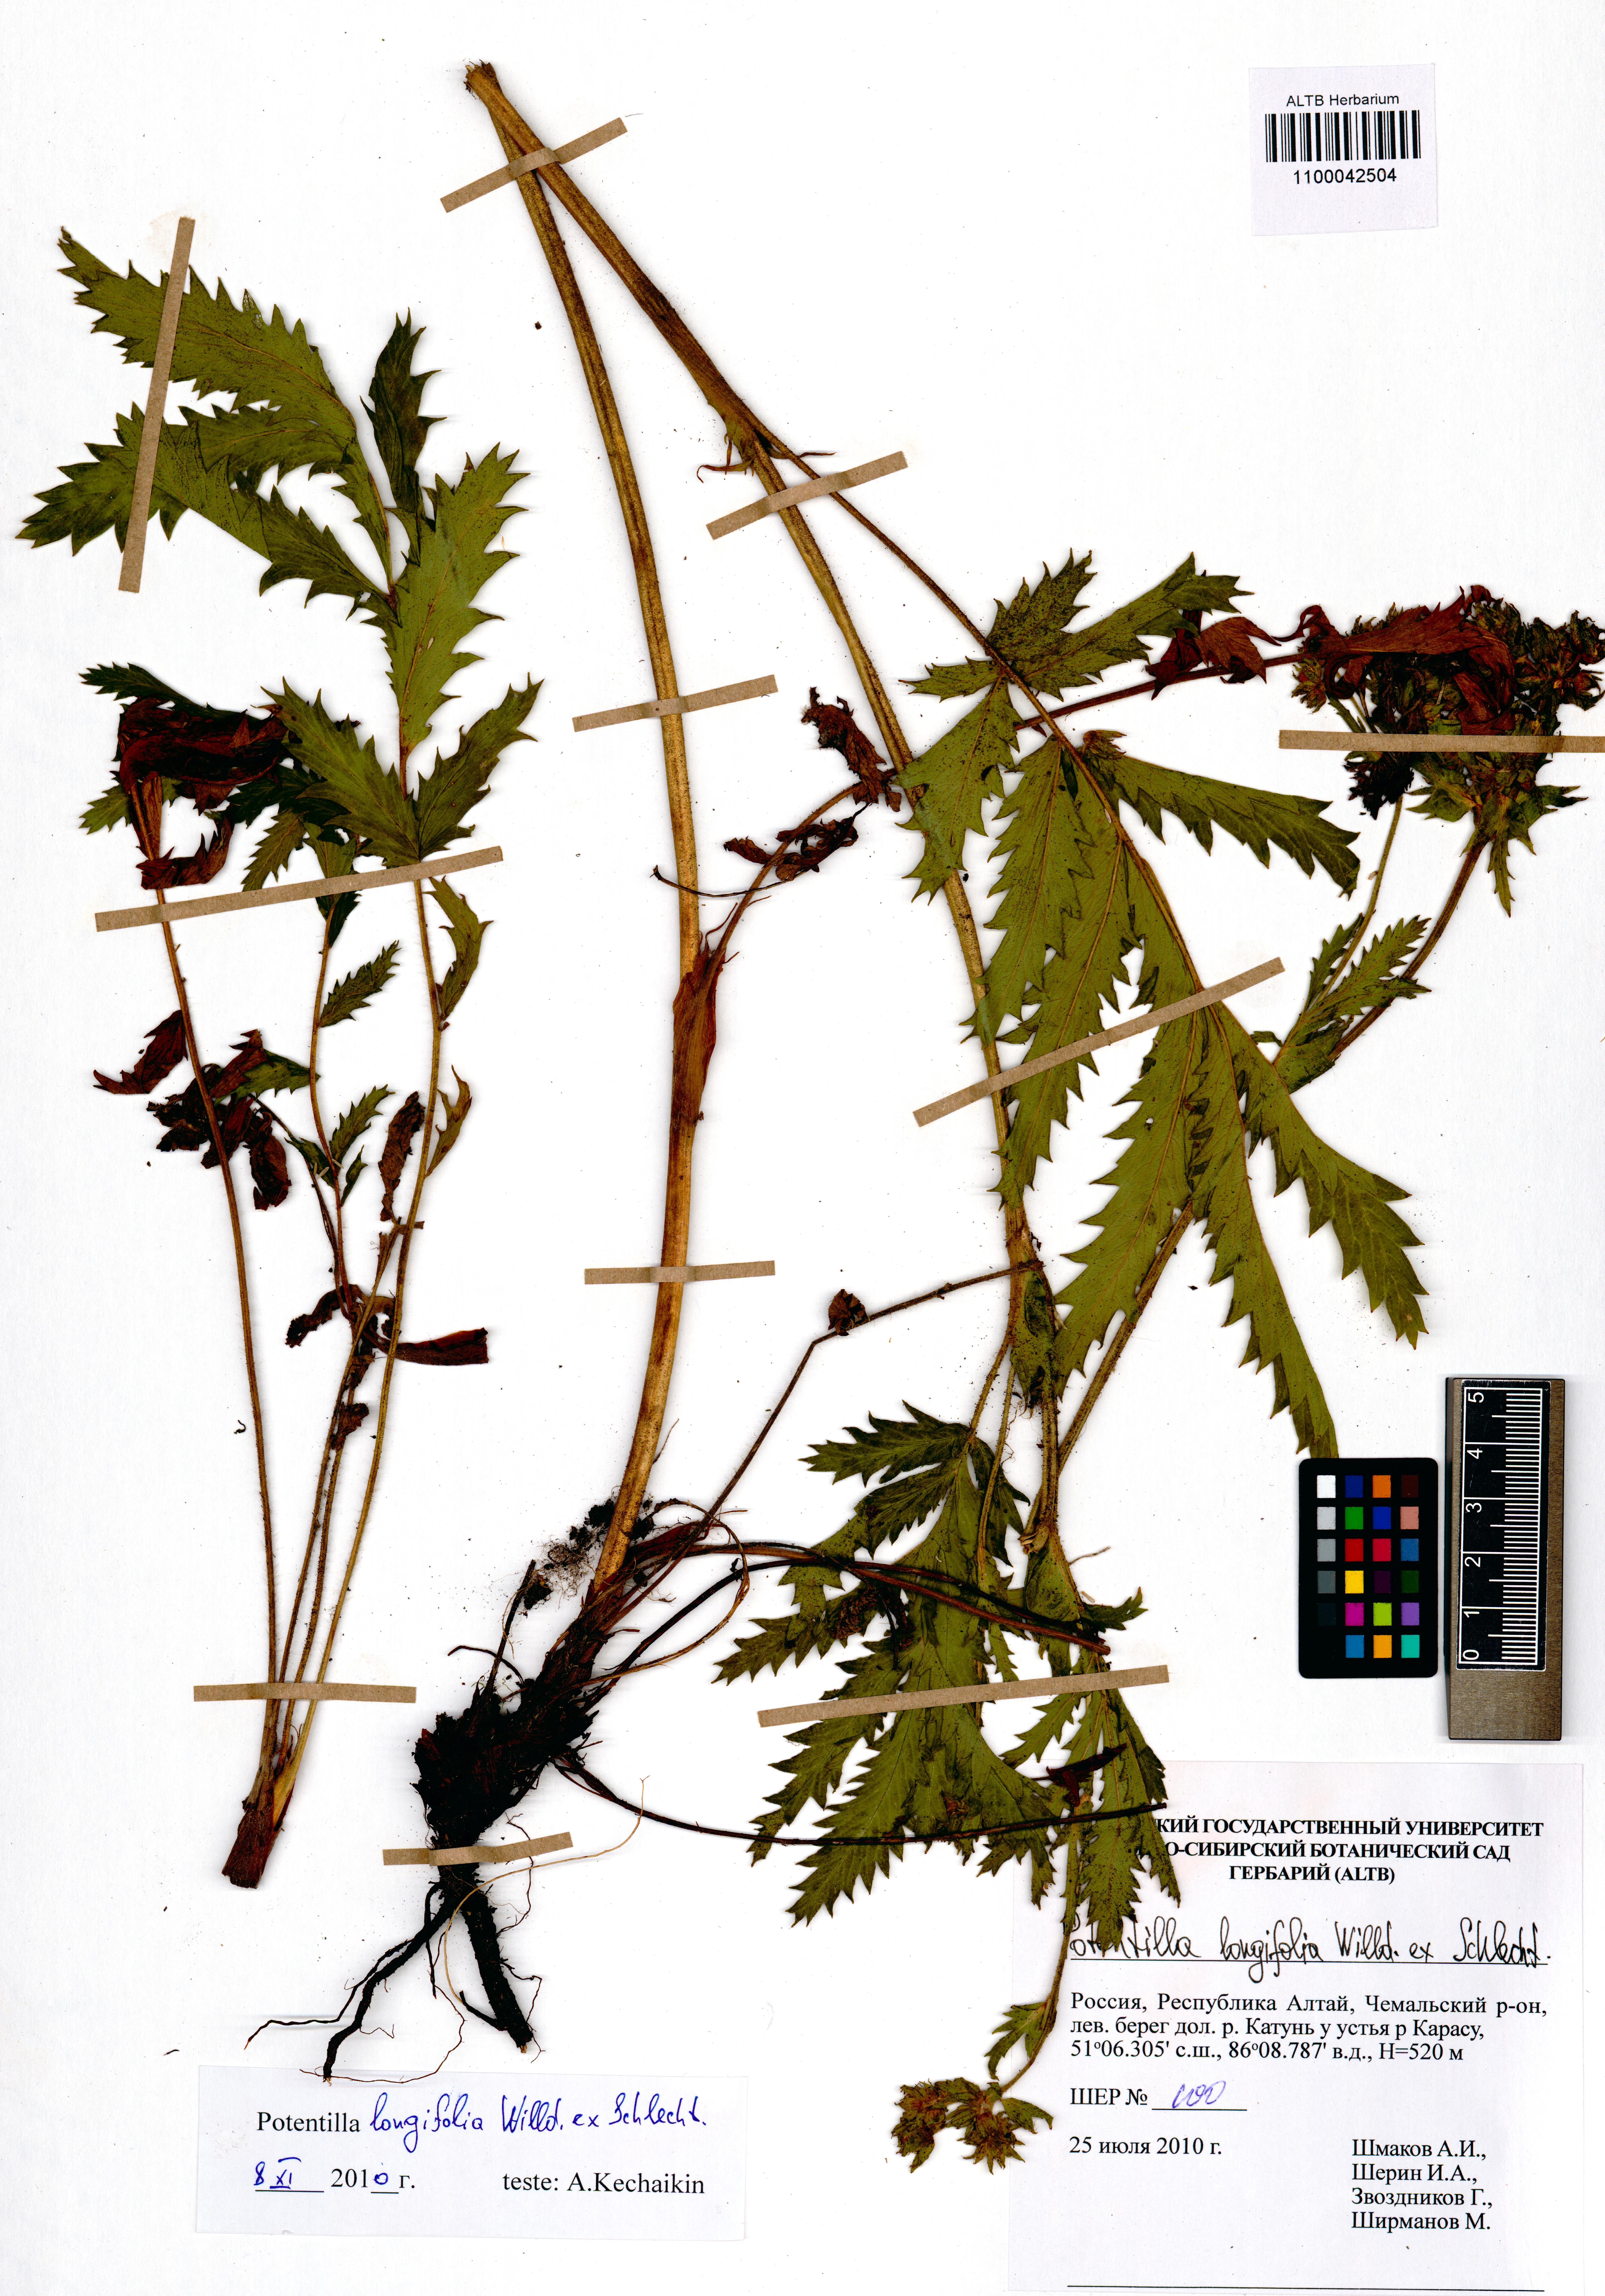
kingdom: Plantae
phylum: Tracheophyta
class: Magnoliopsida
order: Rosales
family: Rosaceae
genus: Potentilla
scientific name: Potentilla longifolia
